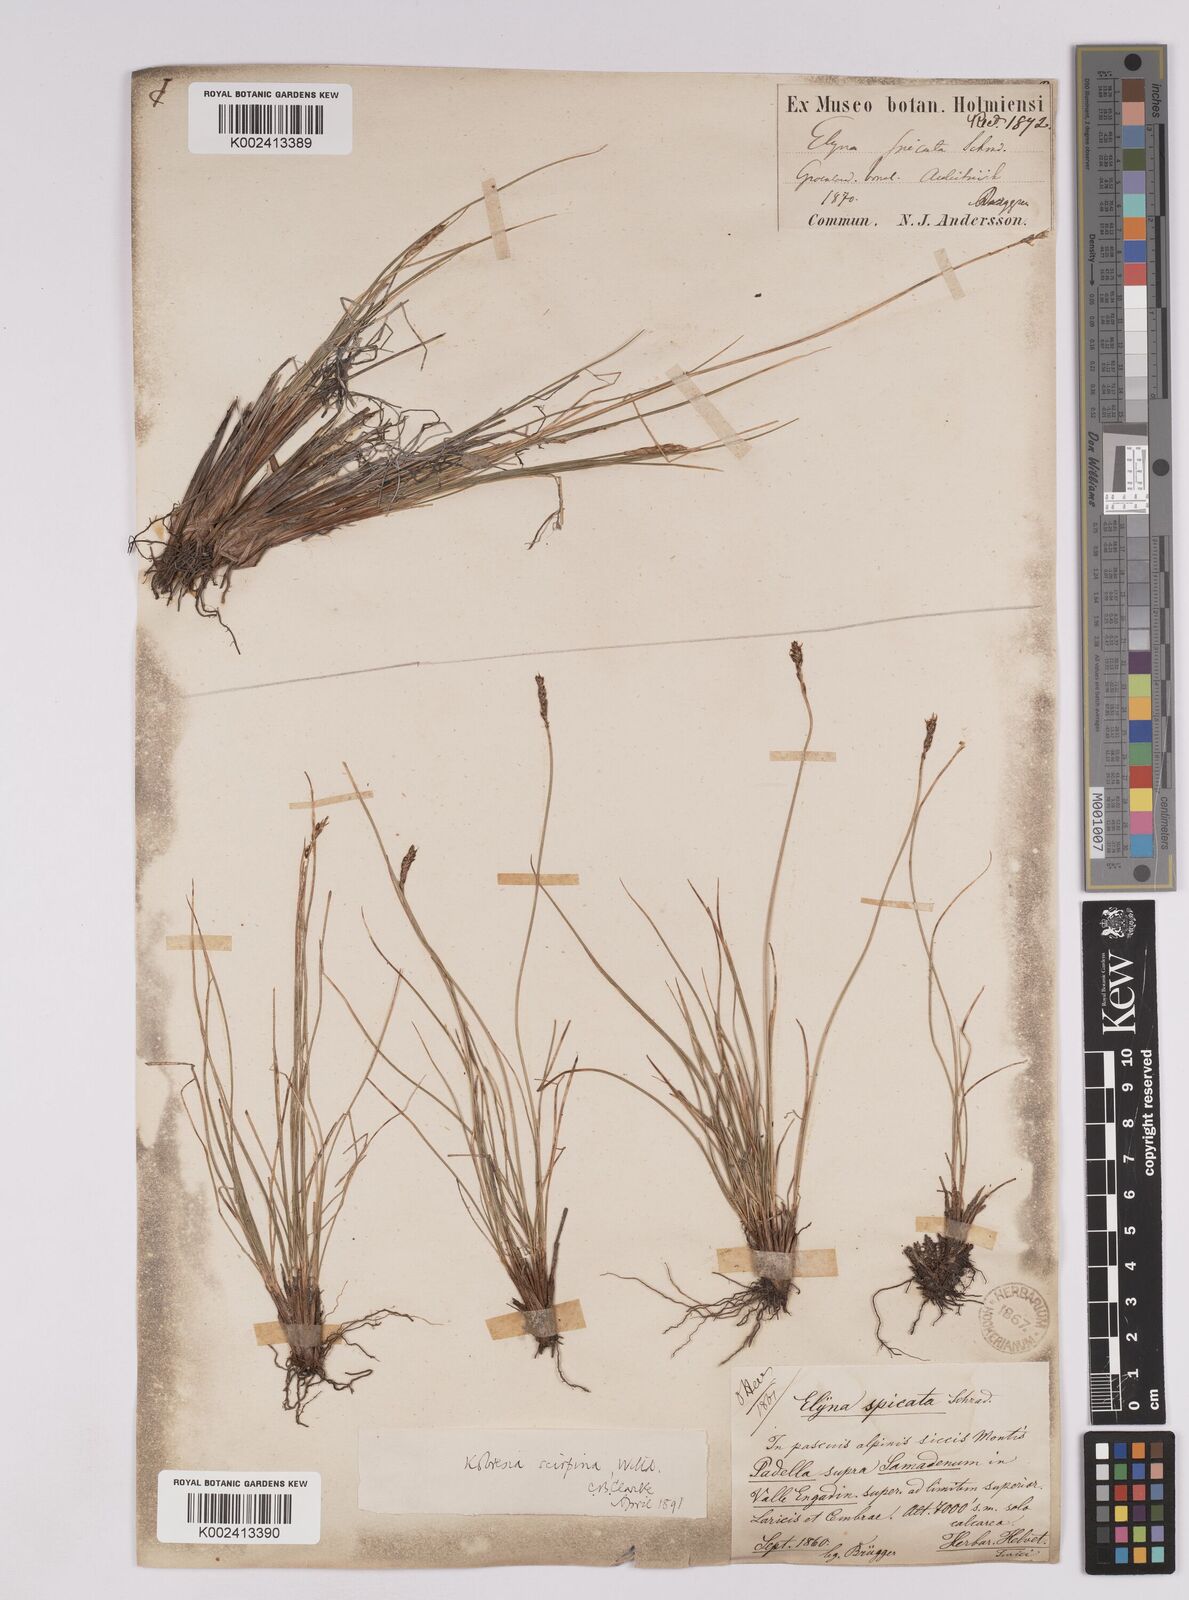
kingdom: Plantae
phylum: Tracheophyta
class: Liliopsida
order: Poales
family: Cyperaceae
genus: Carex
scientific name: Carex myosuroides
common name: Bellard's bog sedge
